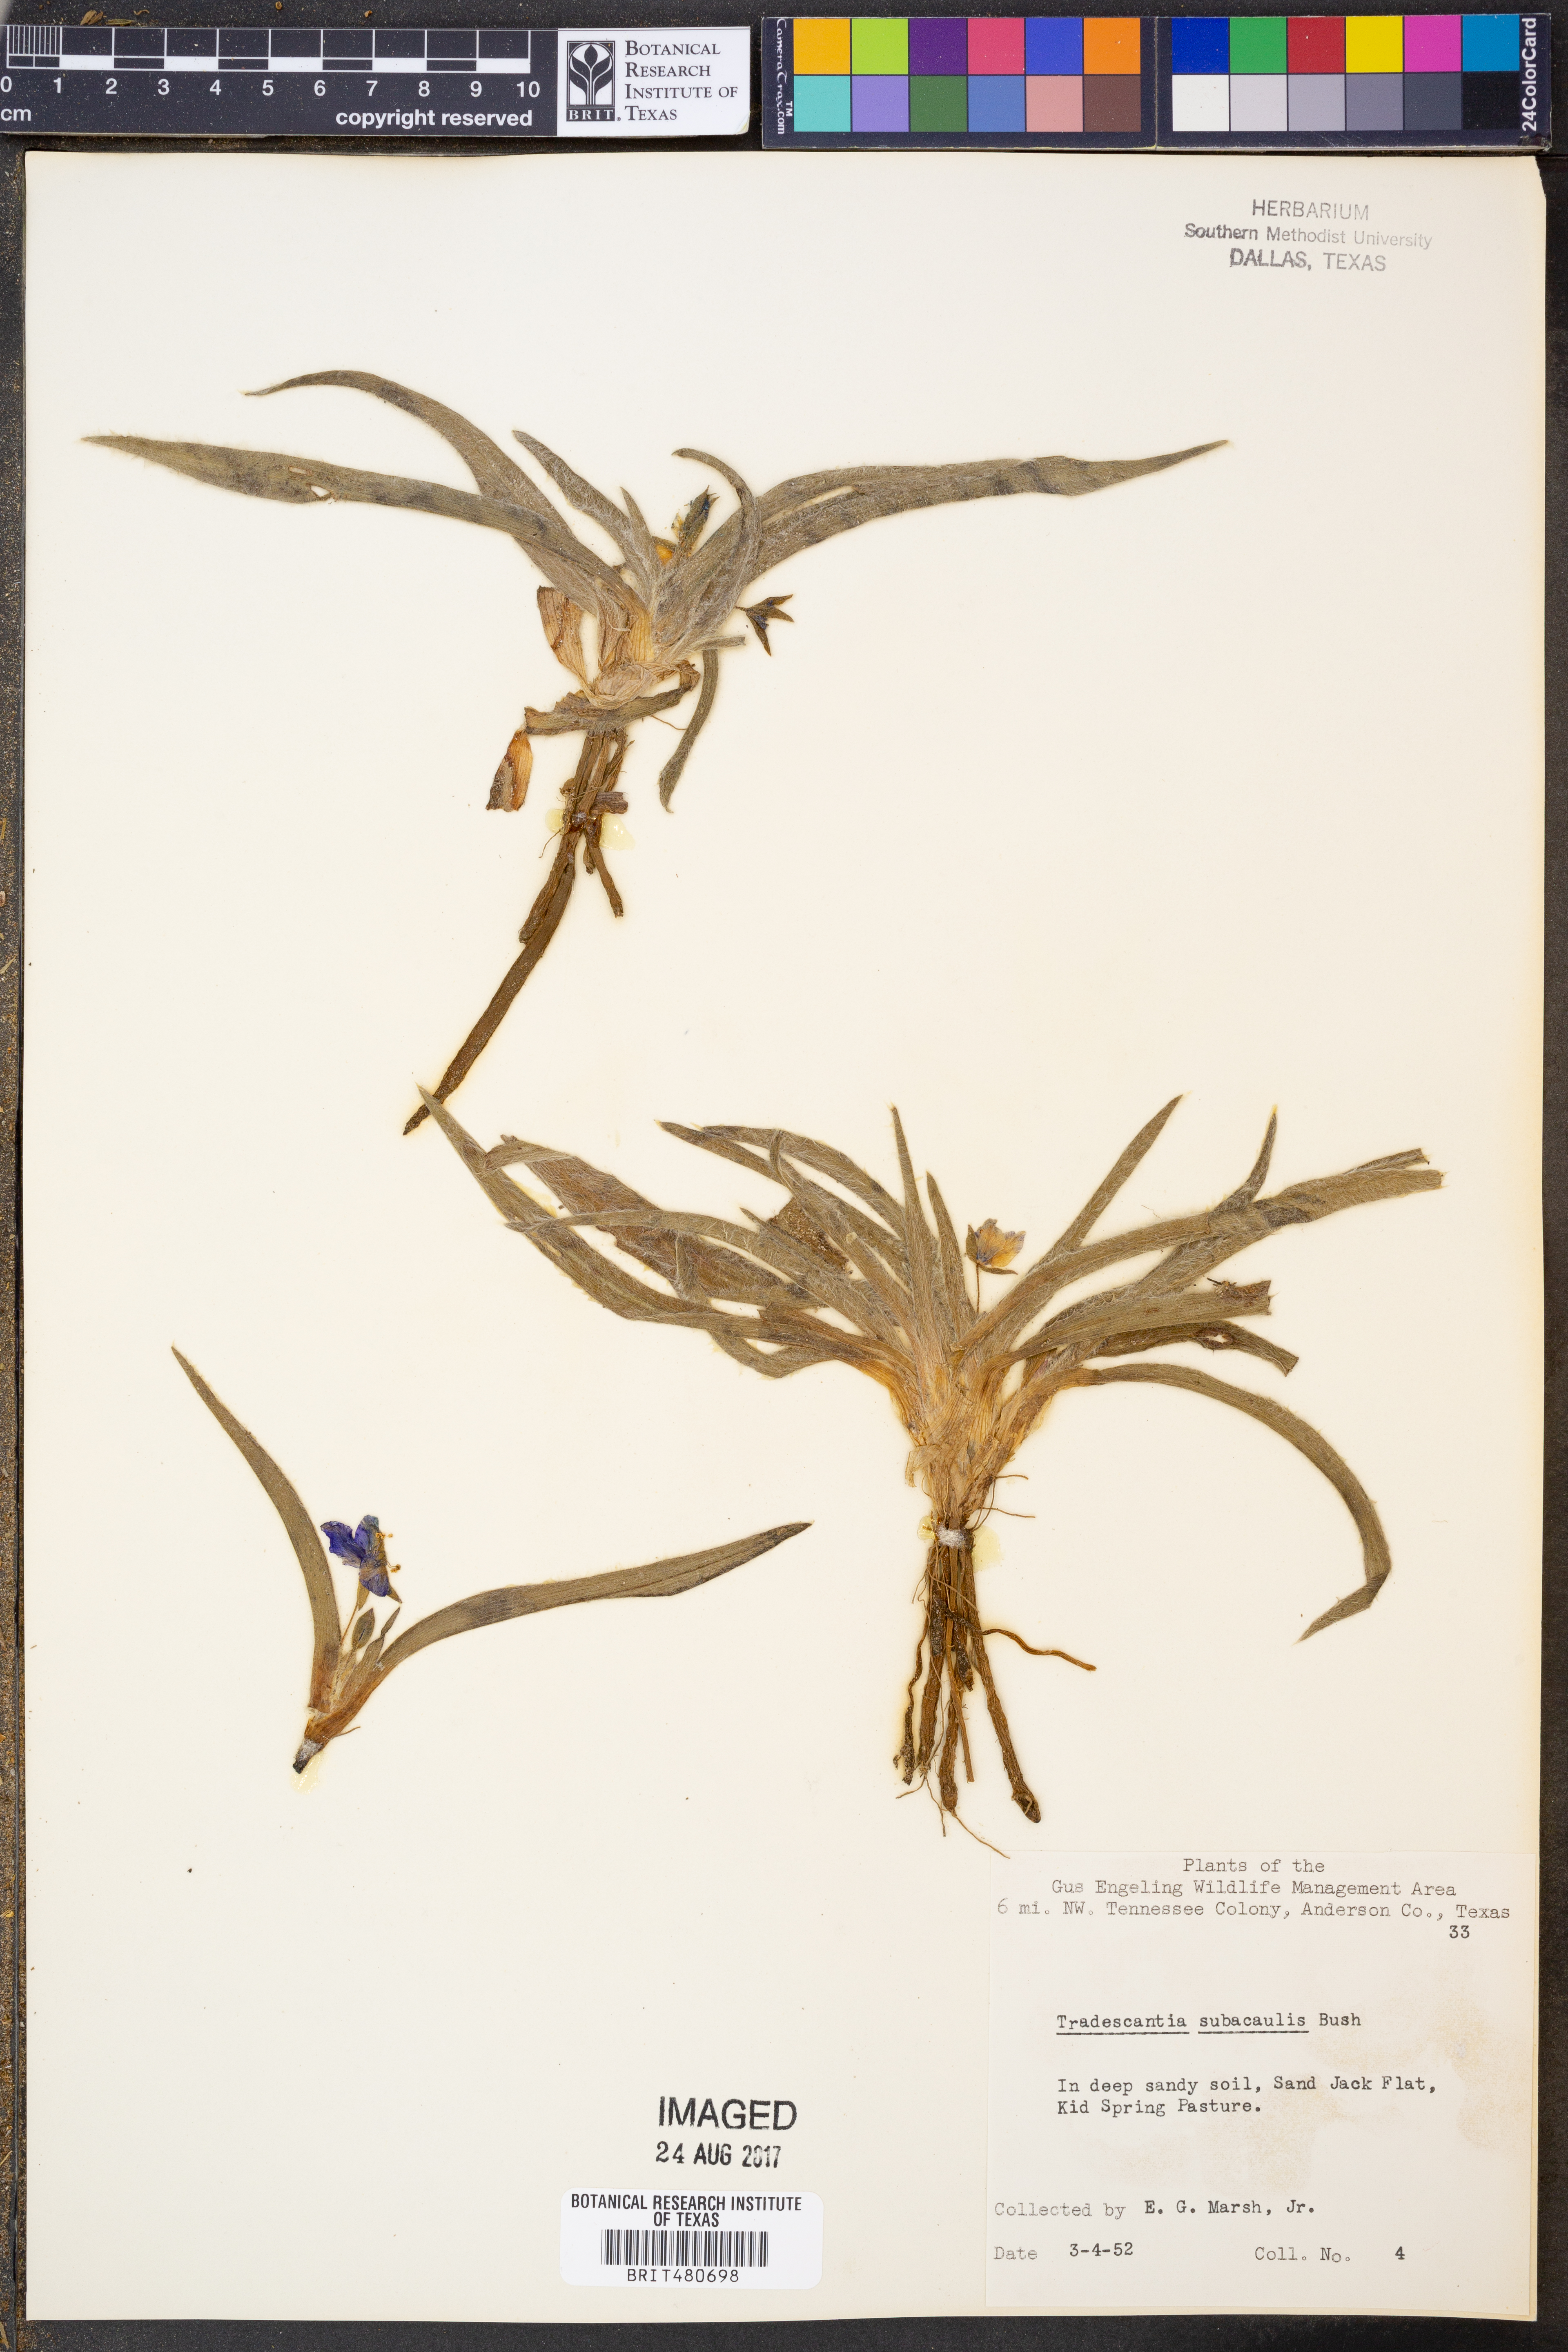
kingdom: Plantae
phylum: Tracheophyta
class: Liliopsida
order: Commelinales
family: Commelinaceae
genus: Tradescantia
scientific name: Tradescantia subacaulis
